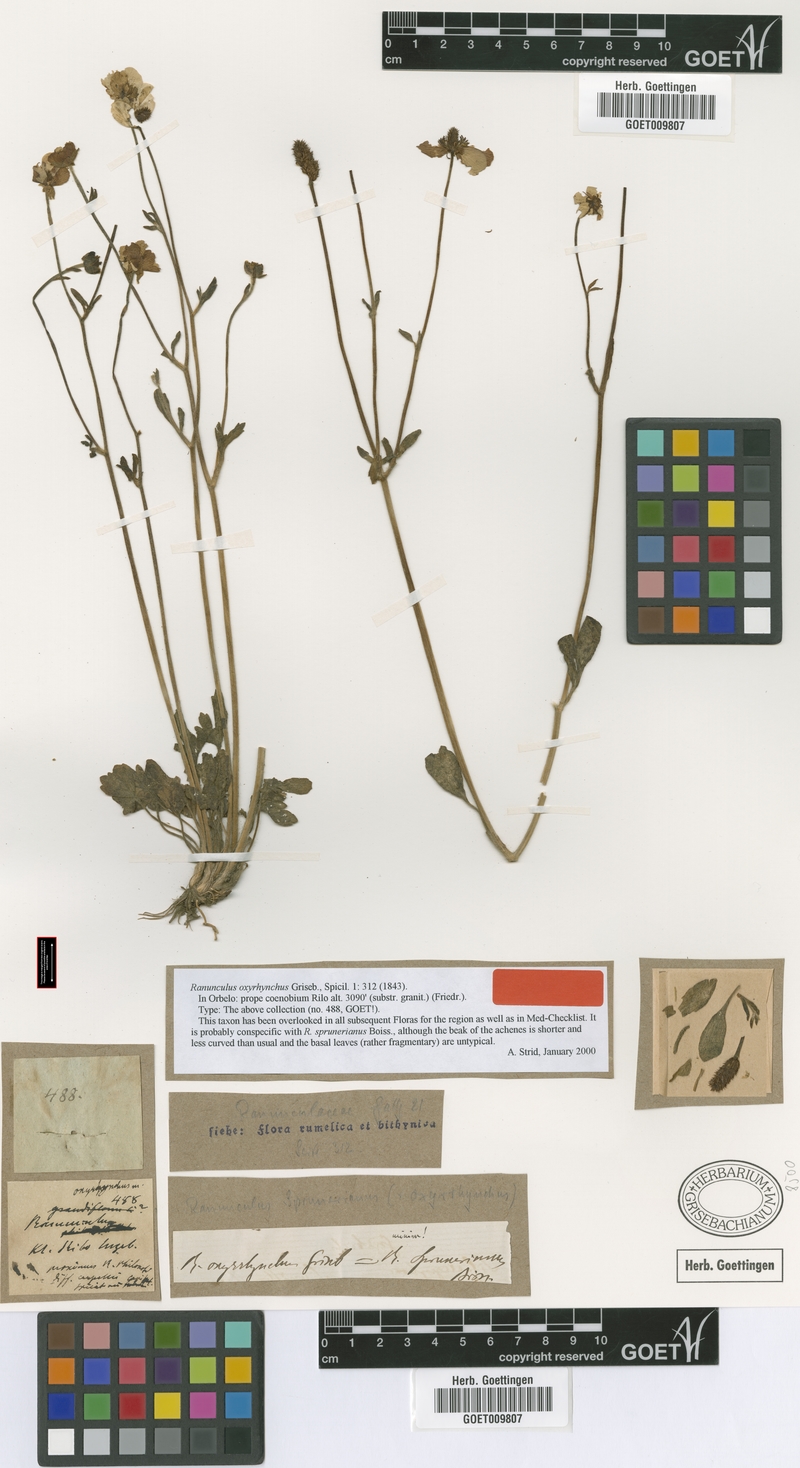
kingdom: Plantae
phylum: Tracheophyta
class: Magnoliopsida
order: Ranunculales
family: Ranunculaceae
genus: Ranunculus
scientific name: Ranunculus sprunerianus
